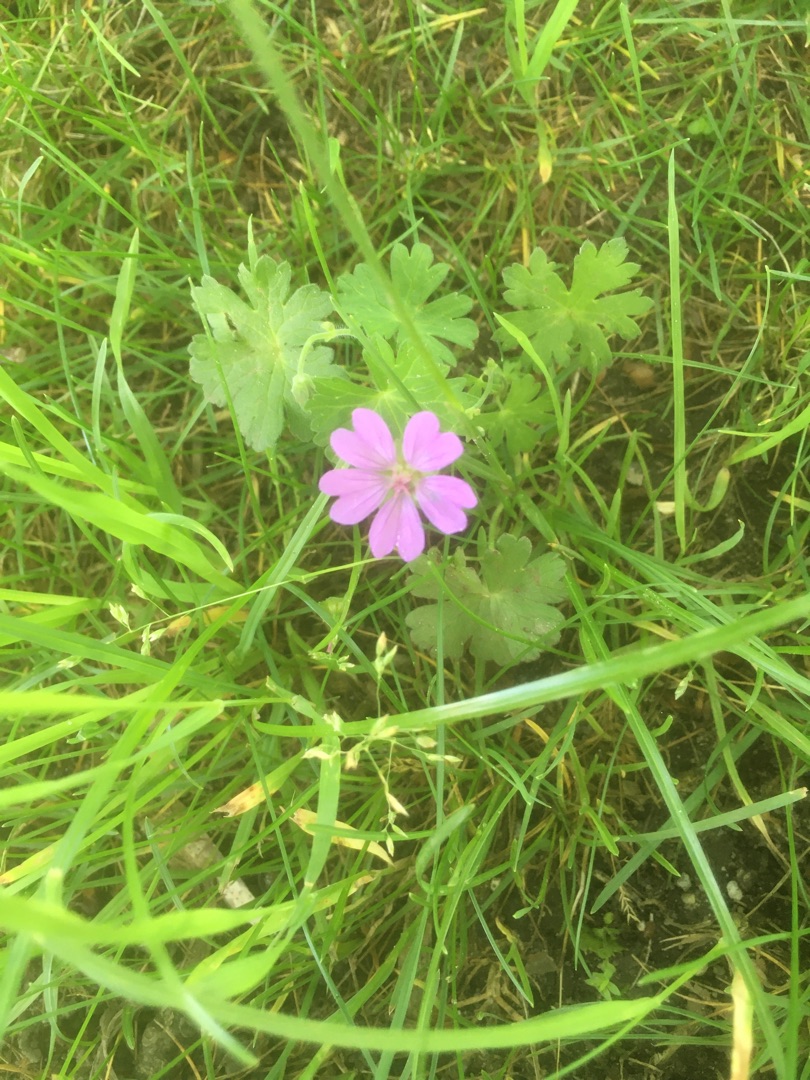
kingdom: Plantae
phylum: Tracheophyta
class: Magnoliopsida
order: Geraniales
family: Geraniaceae
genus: Geranium
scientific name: Geranium pyrenaicum
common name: Pyrenæisk storkenæb
